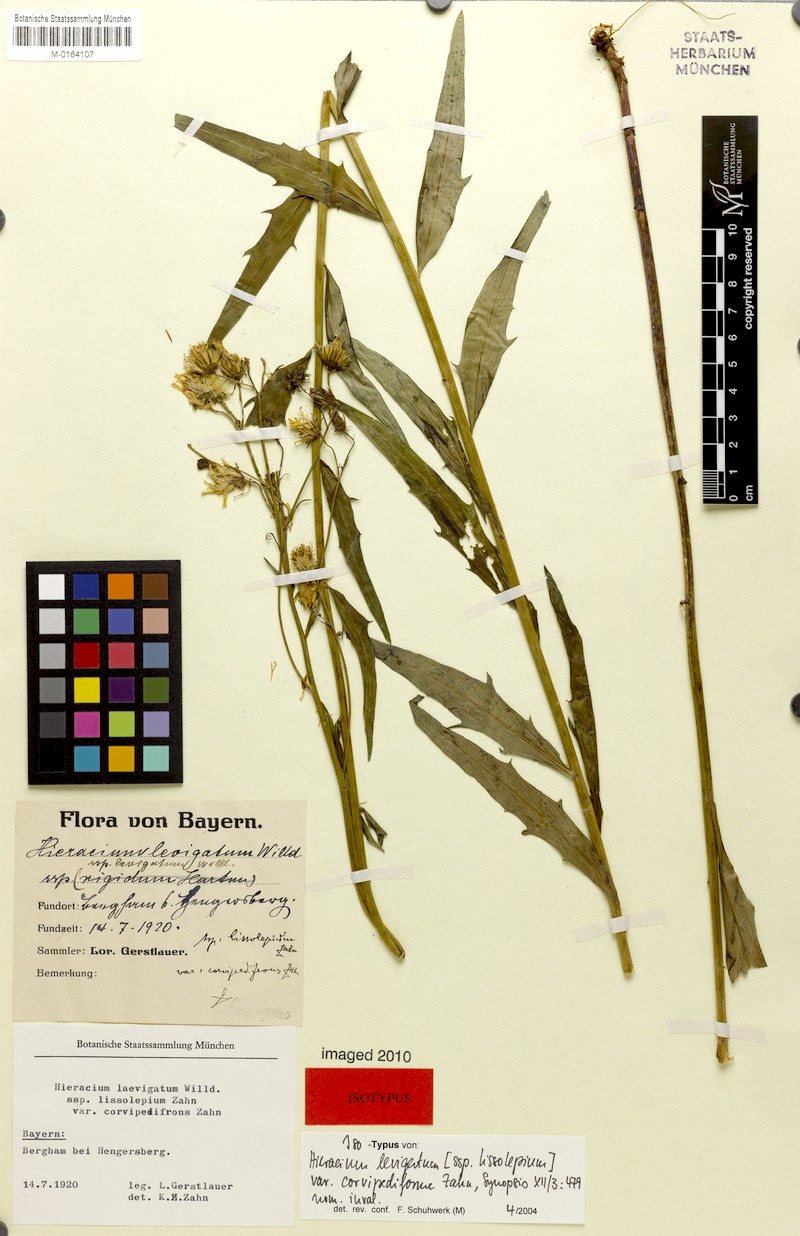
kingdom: Plantae
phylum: Tracheophyta
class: Magnoliopsida
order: Asterales
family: Asteraceae
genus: Hieracium
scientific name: Hieracium laevigatum
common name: Smooth hawkweed
